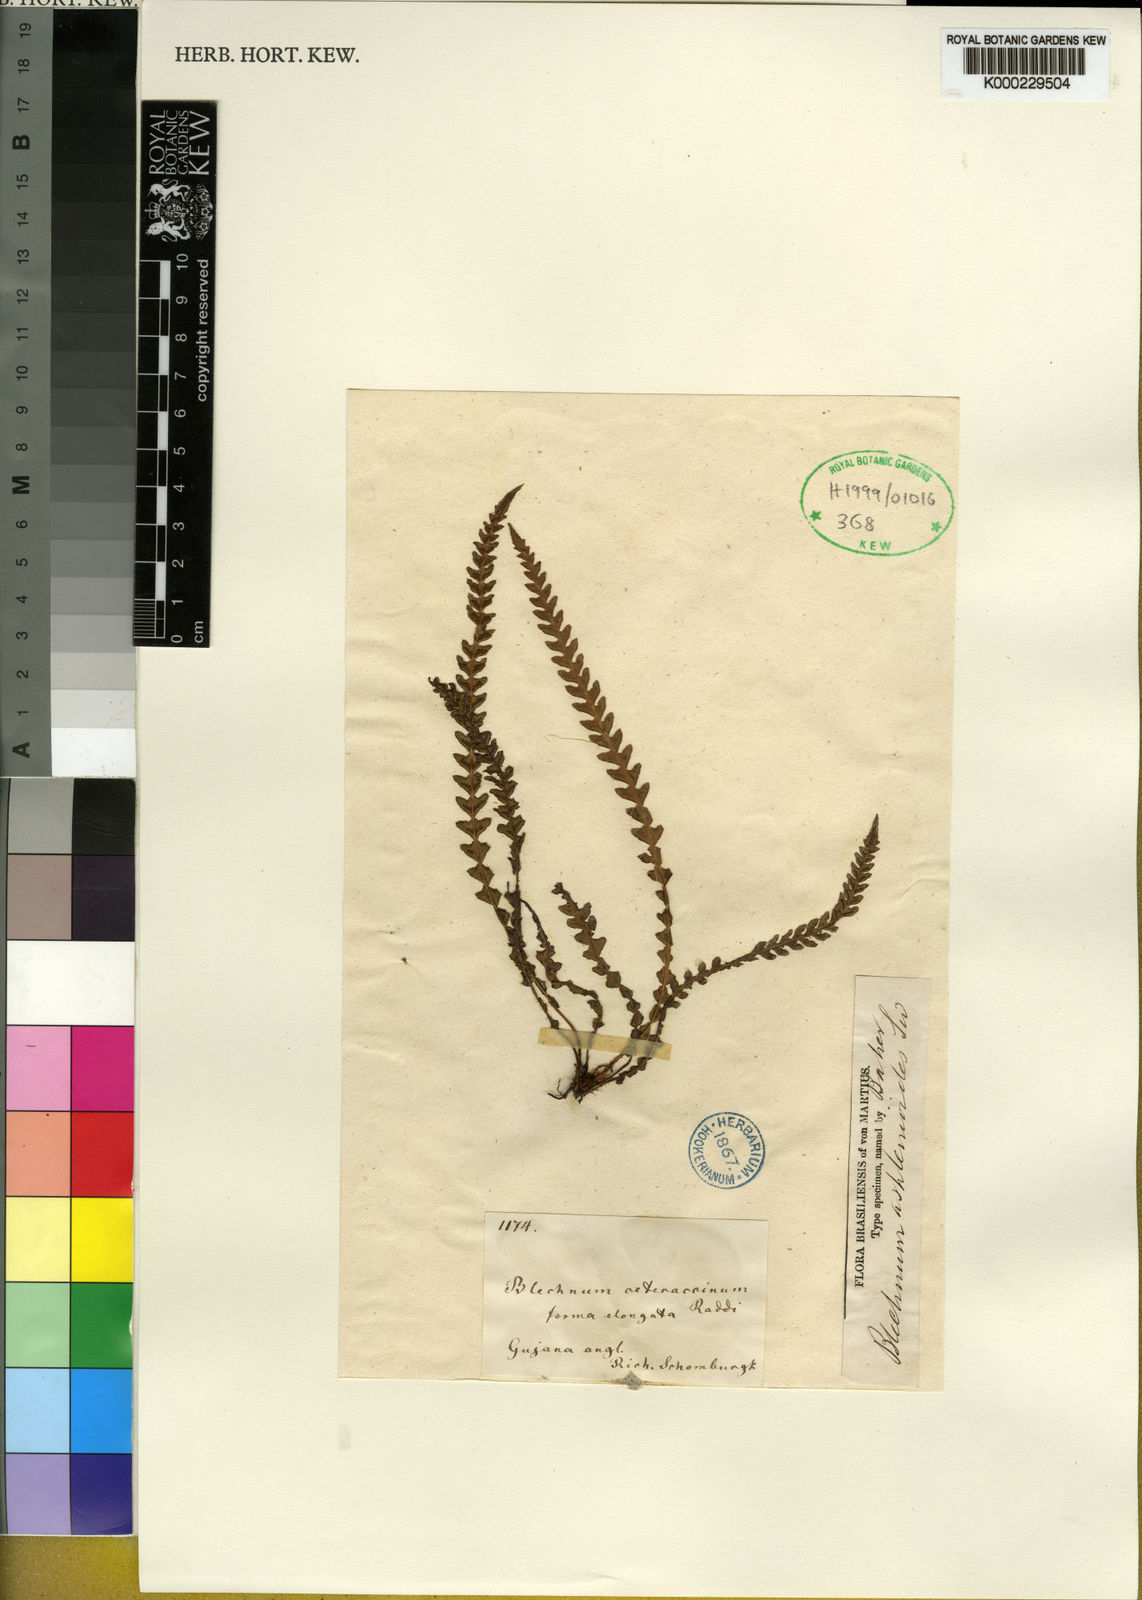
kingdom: Plantae
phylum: Tracheophyta
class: Polypodiopsida
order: Polypodiales
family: Blechnaceae
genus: Blechnum
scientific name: Blechnum asplenioides
